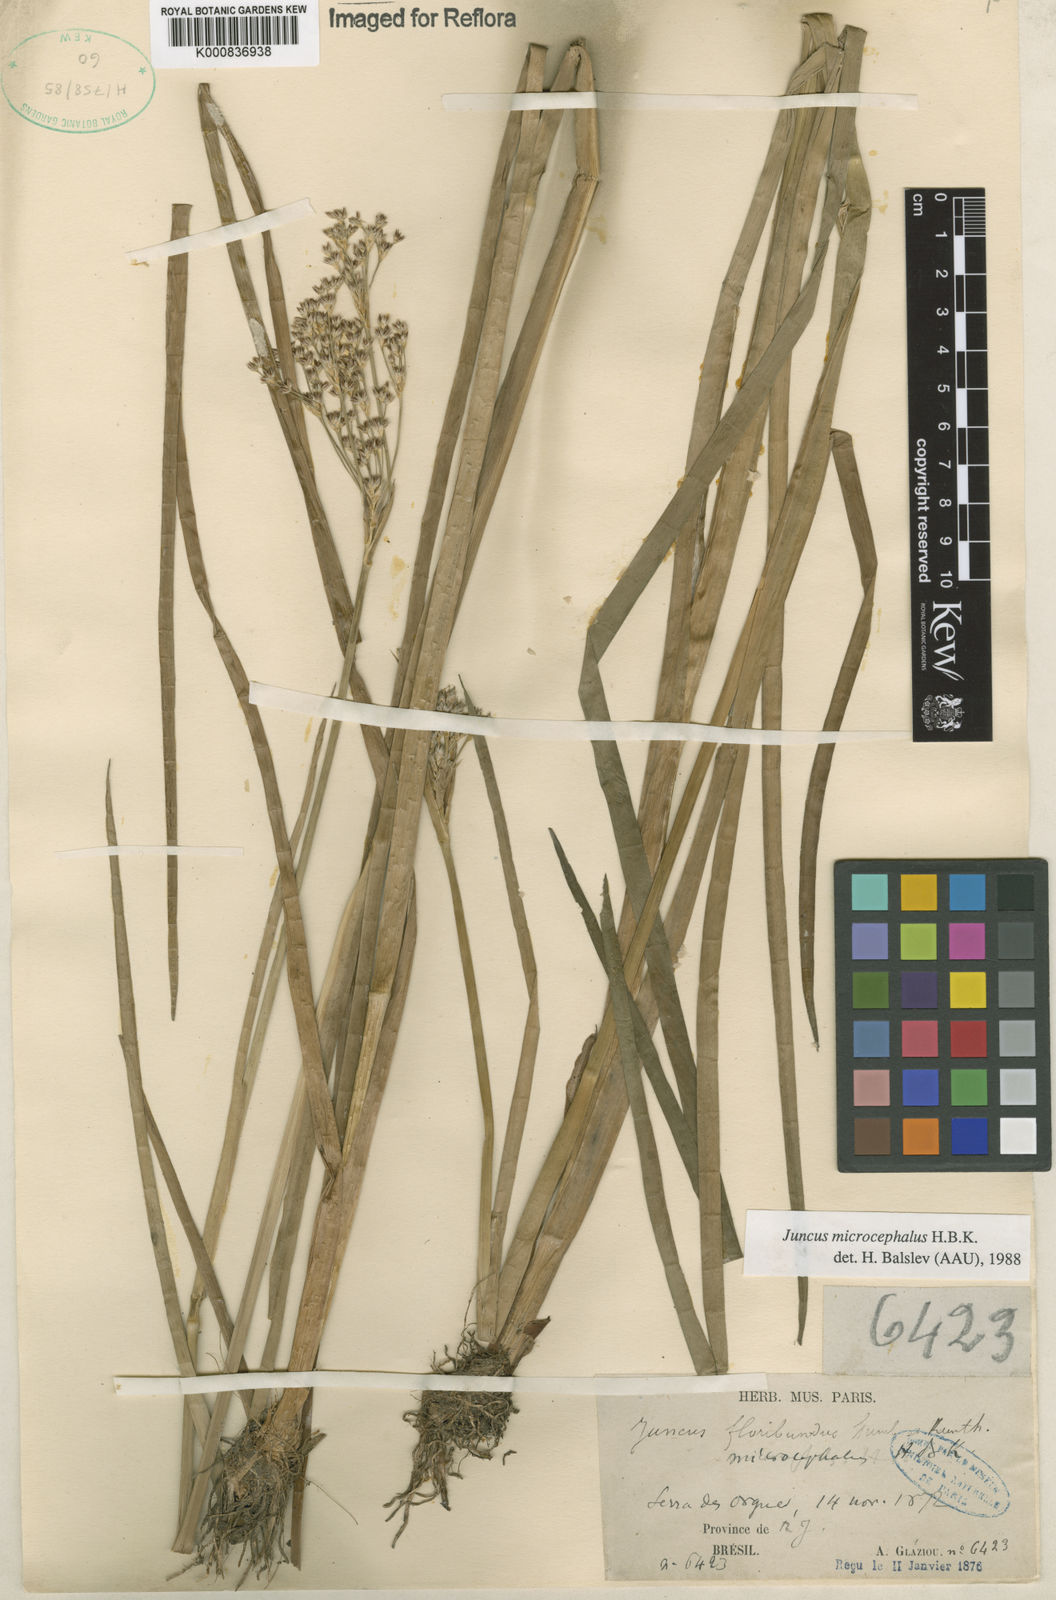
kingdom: Plantae
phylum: Tracheophyta
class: Liliopsida
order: Poales
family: Juncaceae
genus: Juncus
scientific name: Juncus microcephalus
